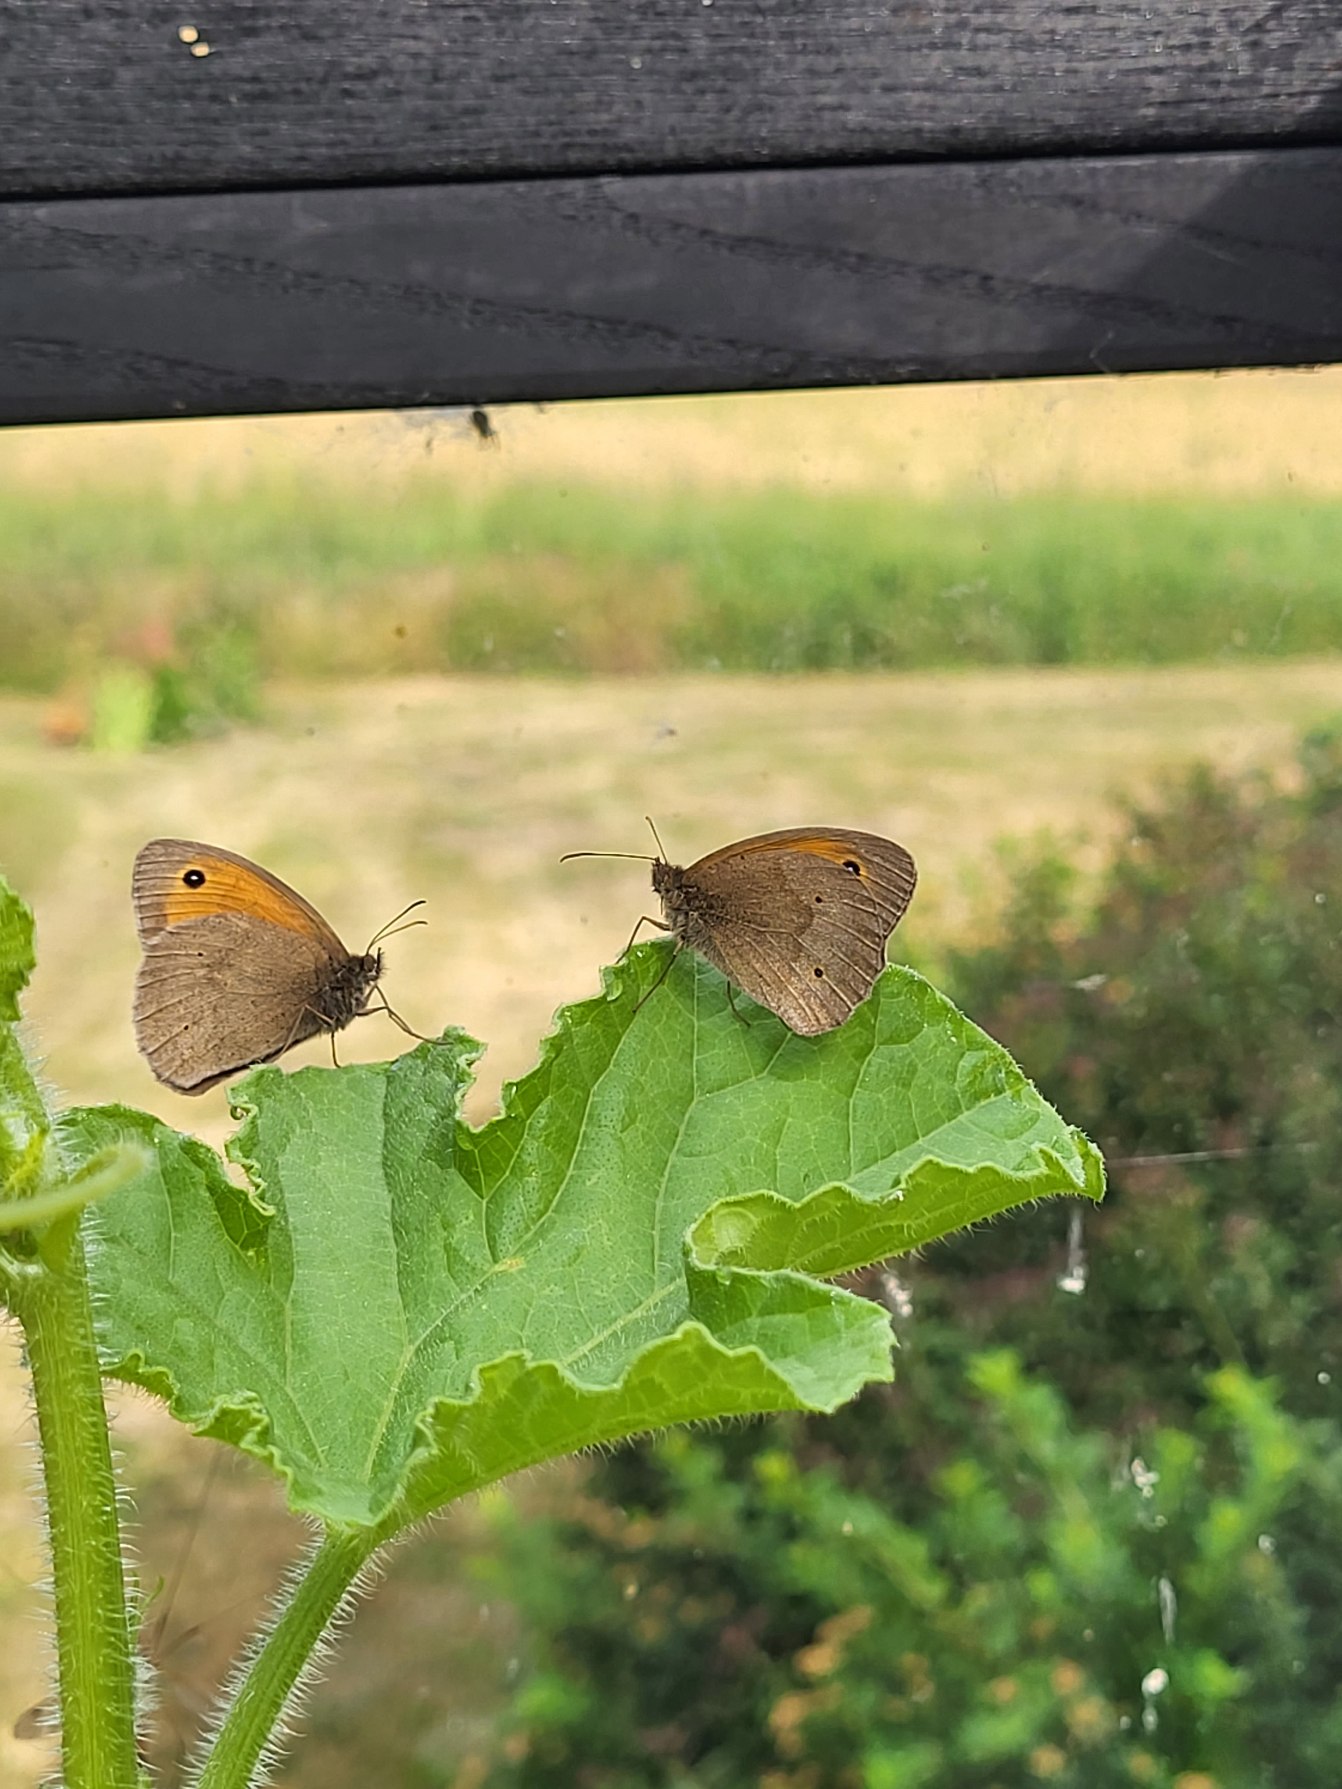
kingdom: Animalia
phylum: Arthropoda
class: Insecta
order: Lepidoptera
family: Nymphalidae
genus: Maniola
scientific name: Maniola jurtina
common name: Græsrandøje
